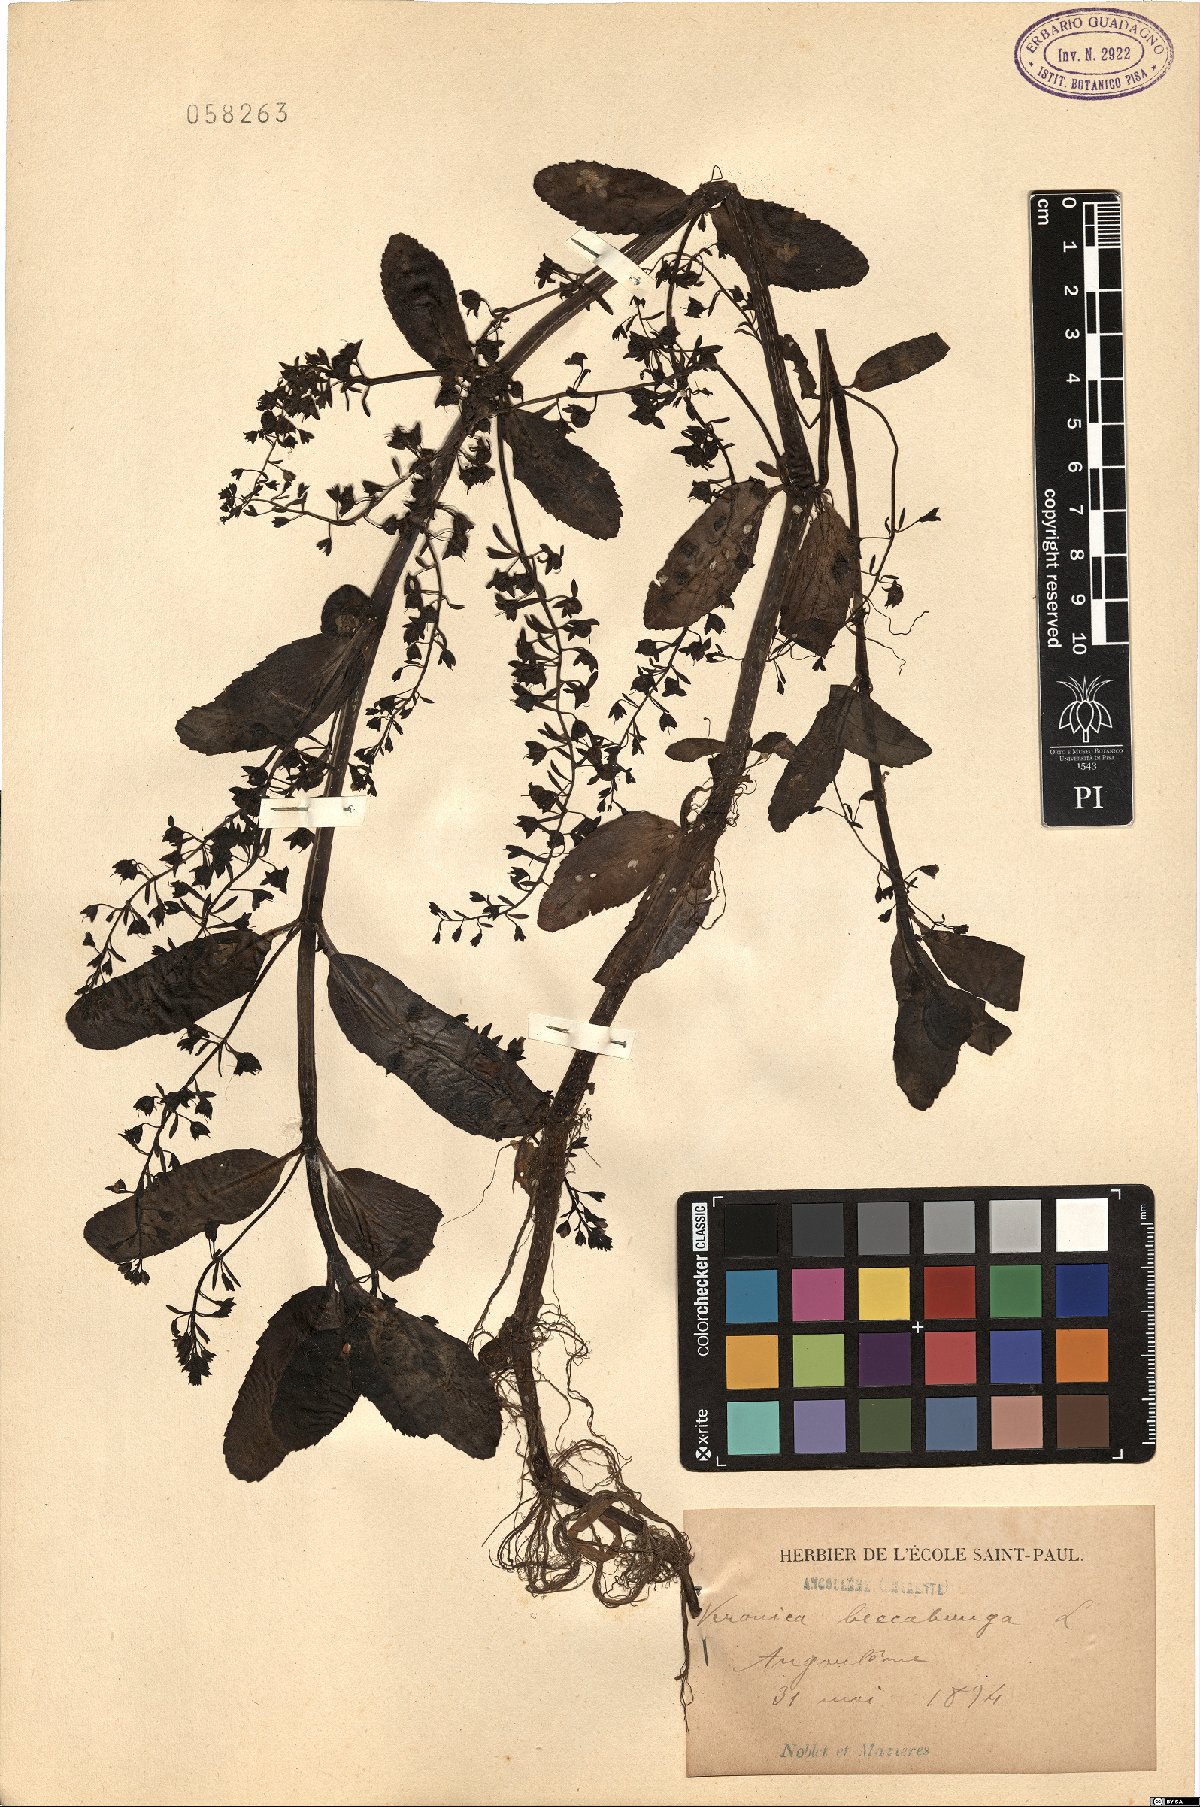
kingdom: Plantae
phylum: Tracheophyta
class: Magnoliopsida
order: Lamiales
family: Plantaginaceae
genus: Veronica
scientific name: Veronica beccabunga
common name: Brooklime
